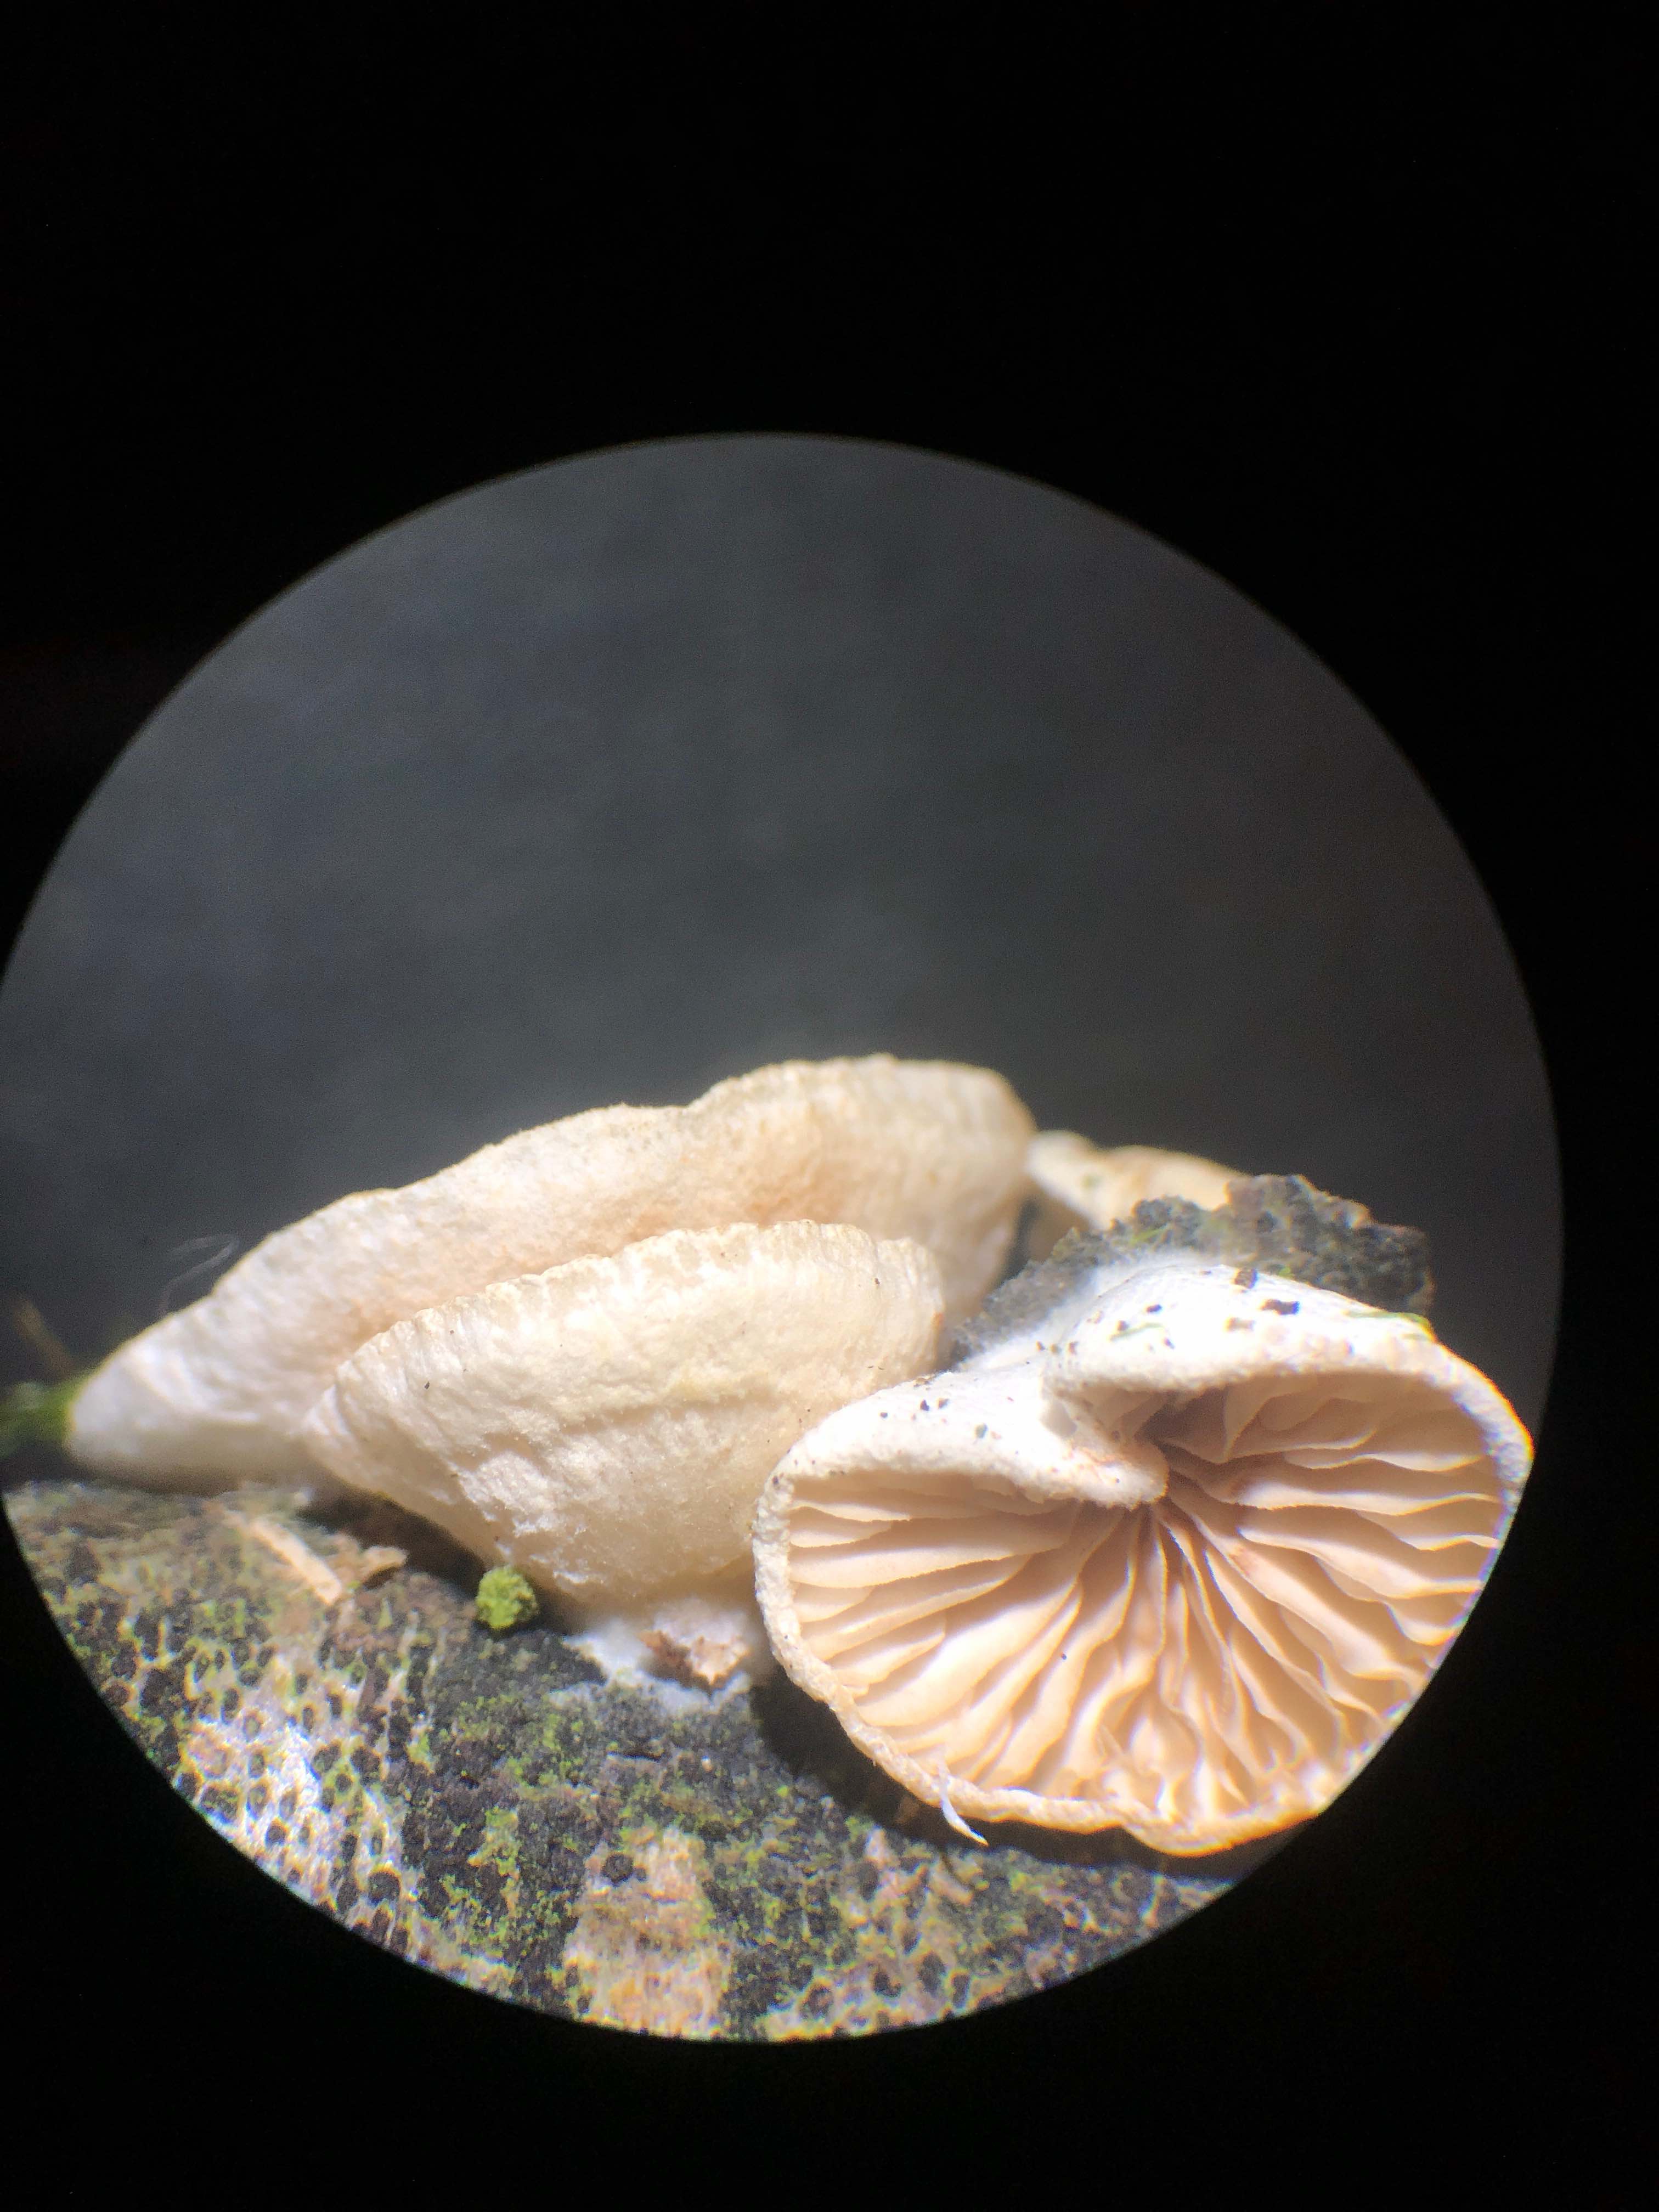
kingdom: Fungi
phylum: Basidiomycota
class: Agaricomycetes
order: Agaricales
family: Crepidotaceae
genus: Crepidotus
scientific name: Crepidotus cesatii
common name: almindelig muslingesvamp
